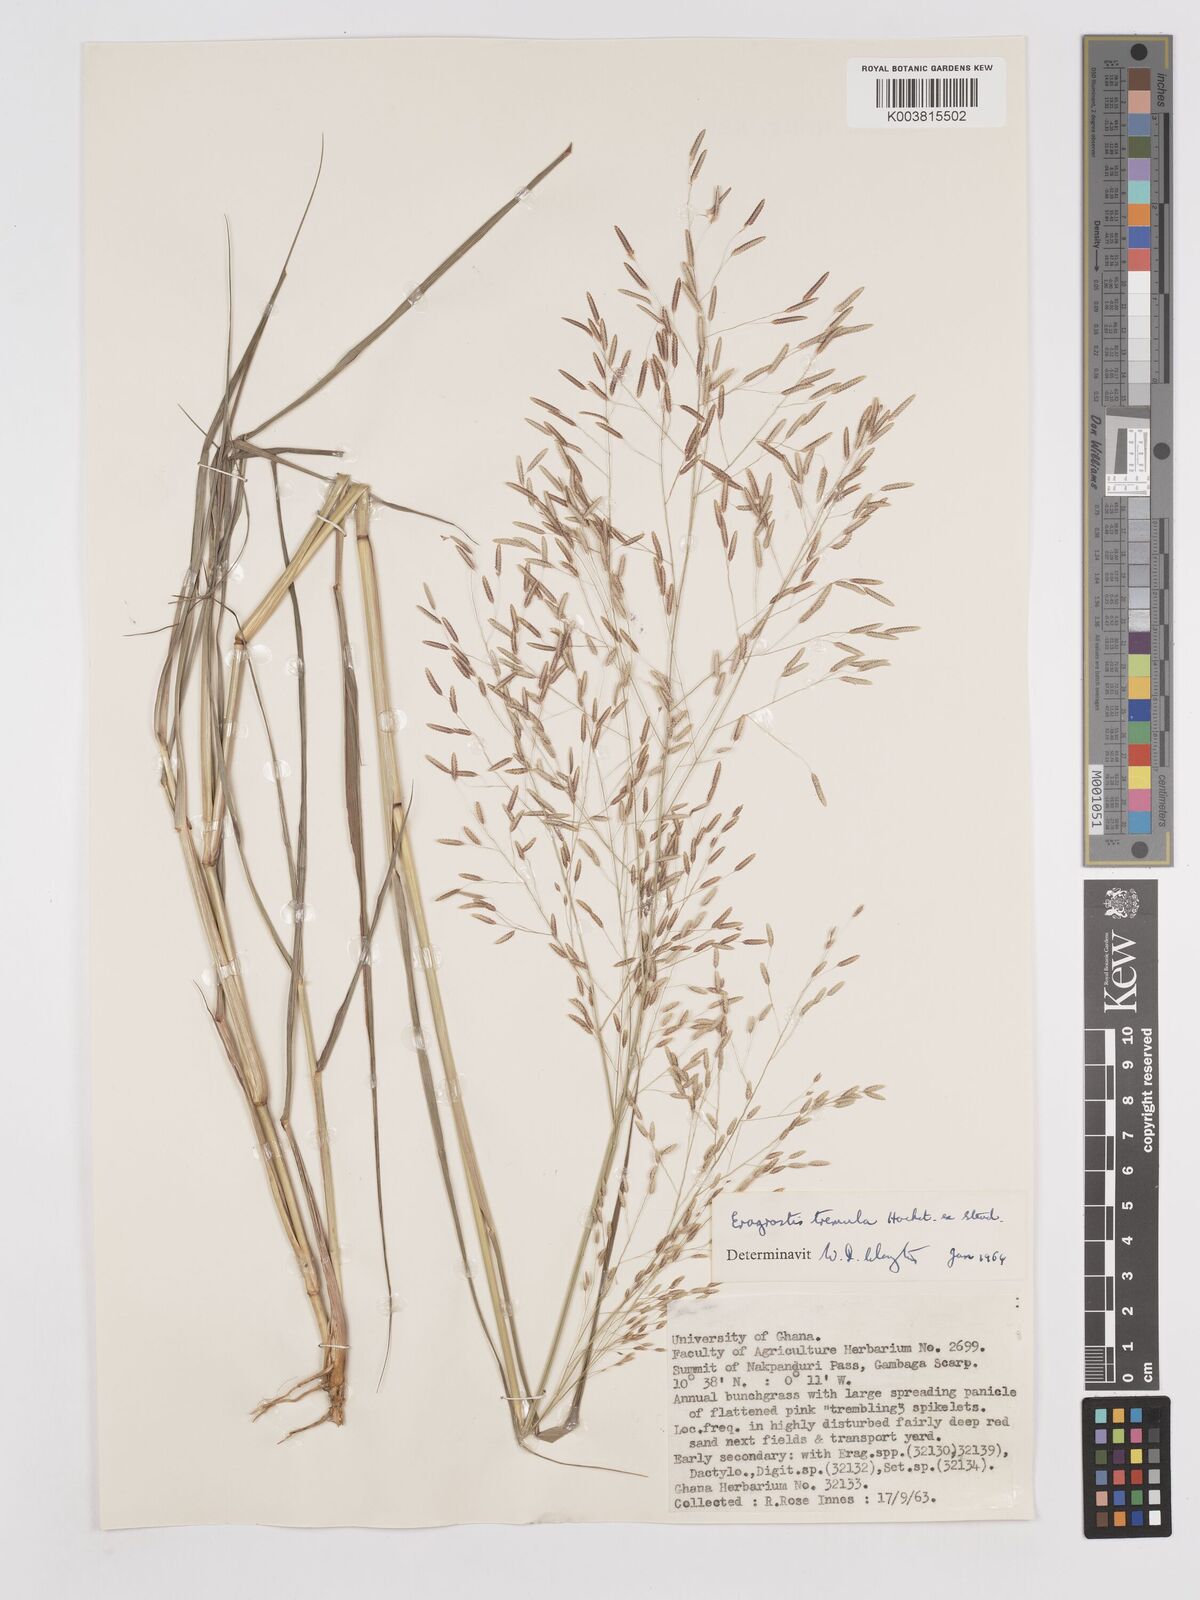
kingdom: Plantae
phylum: Tracheophyta
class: Liliopsida
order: Poales
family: Poaceae
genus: Eragrostis
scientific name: Eragrostis tremula
